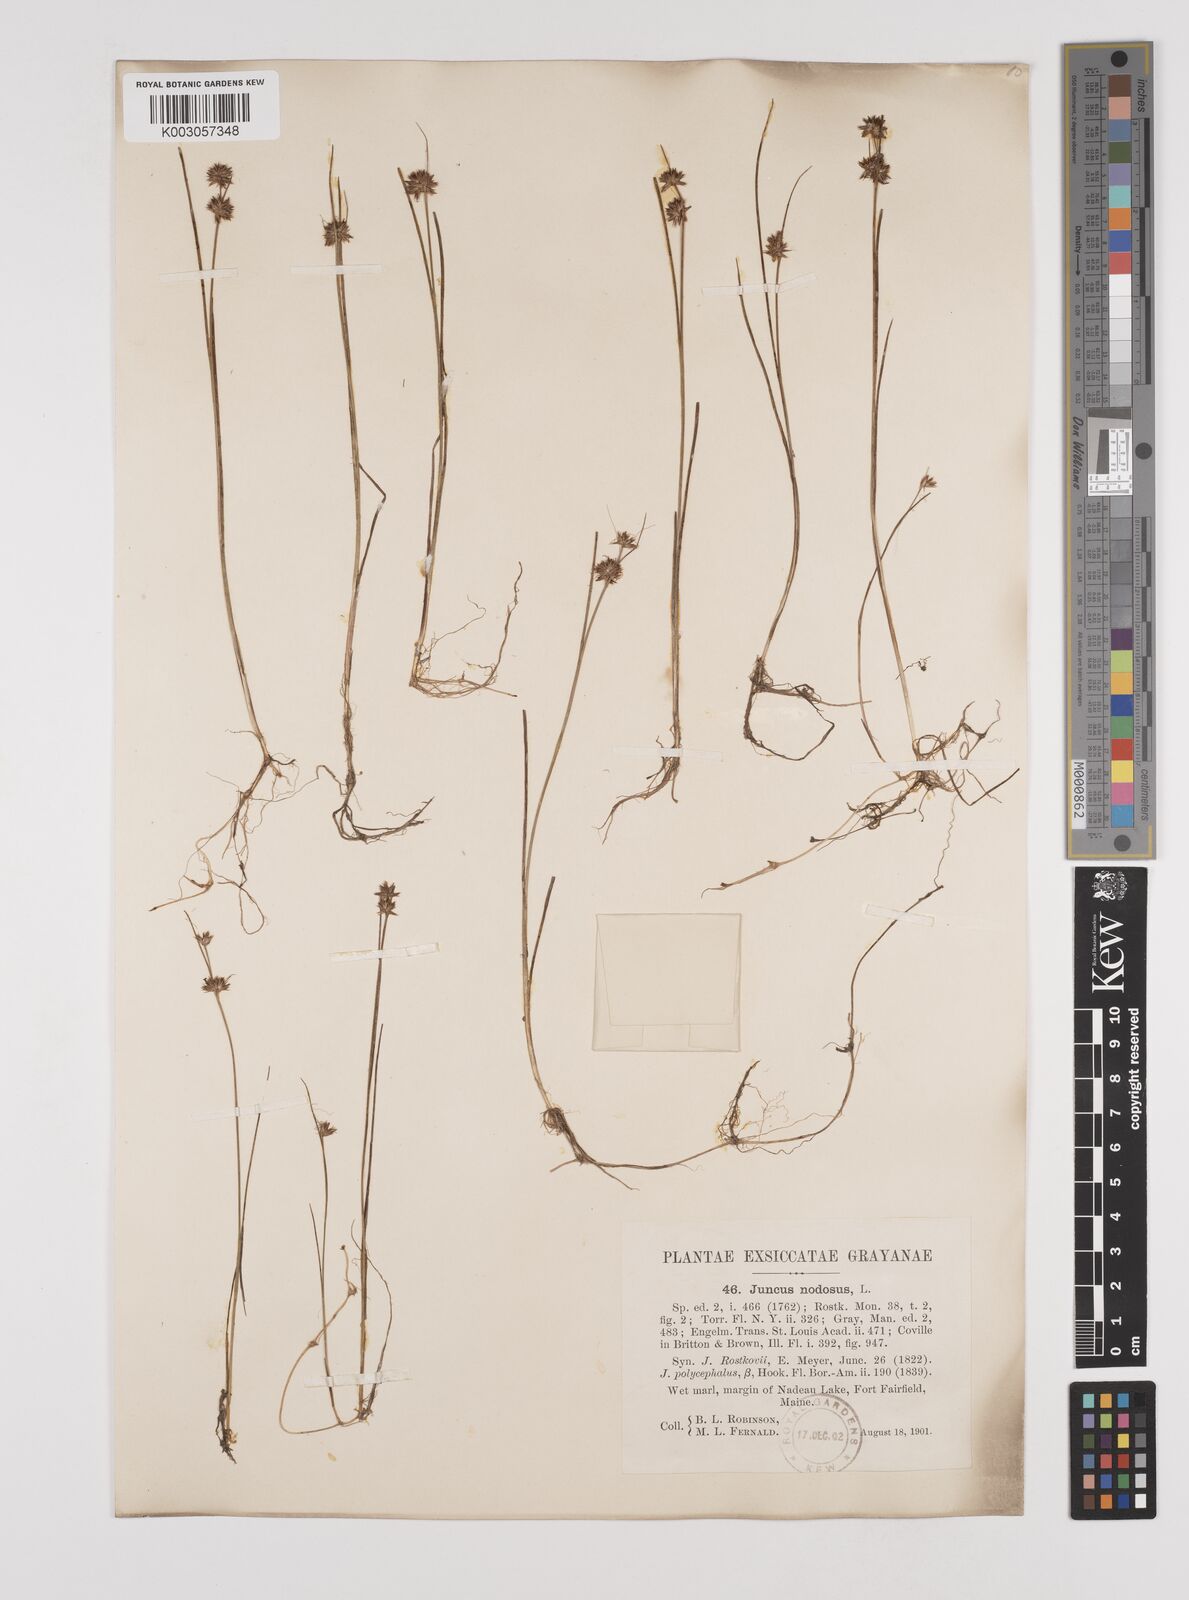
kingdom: Plantae
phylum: Tracheophyta
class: Liliopsida
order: Poales
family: Juncaceae
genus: Juncus
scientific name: Juncus nodosus
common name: Knotted rush
